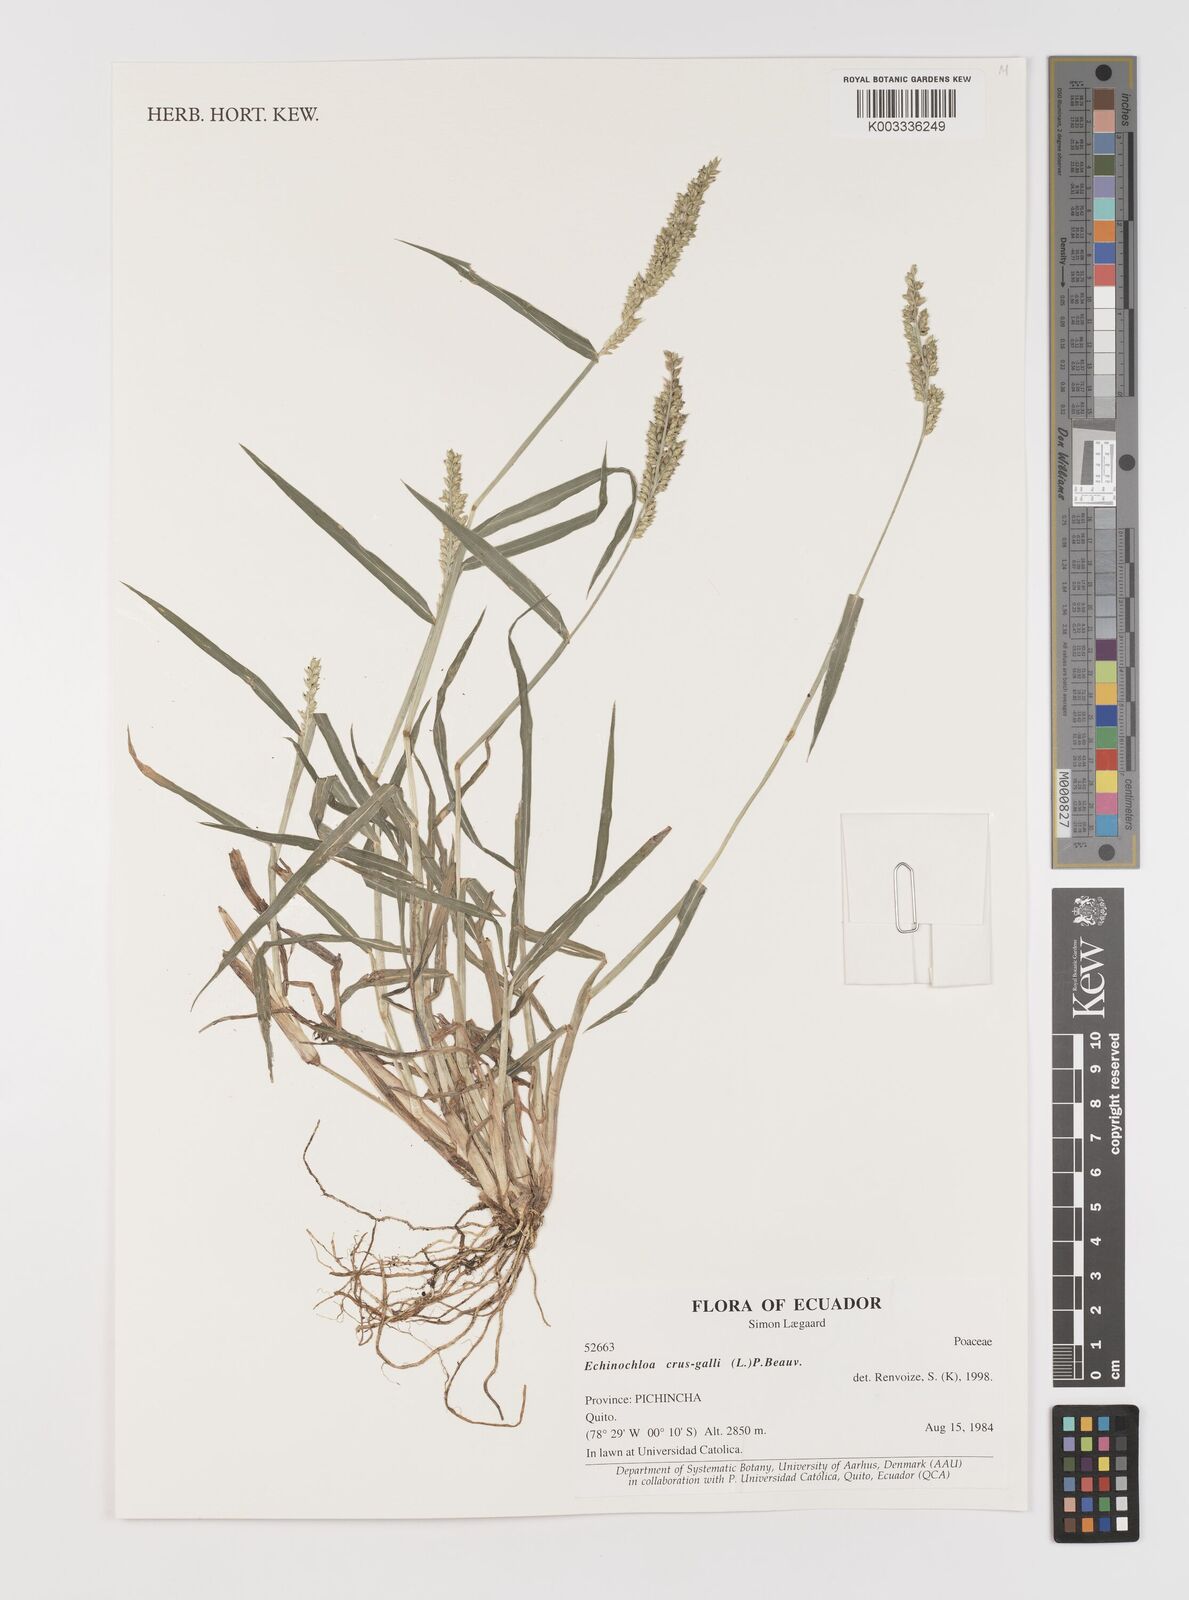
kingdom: Plantae
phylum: Tracheophyta
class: Liliopsida
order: Poales
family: Poaceae
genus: Echinochloa
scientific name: Echinochloa crus-galli
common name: Cockspur
